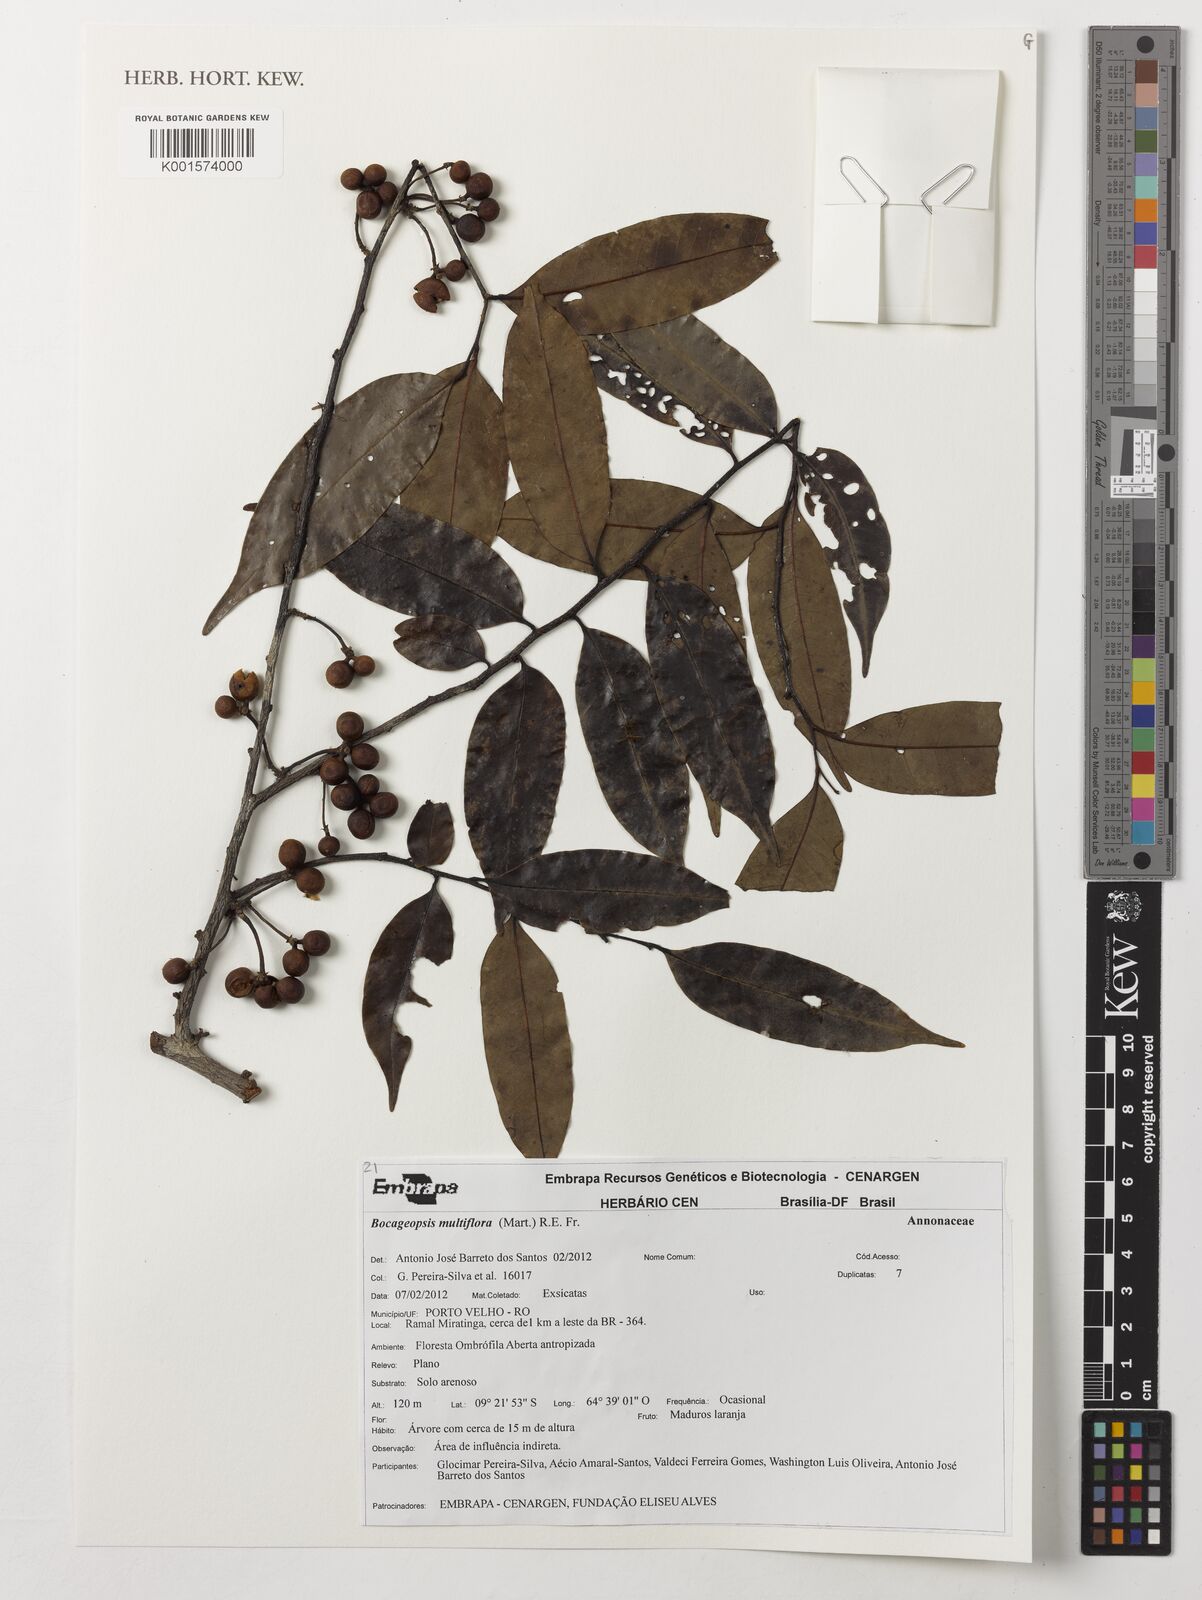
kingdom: Plantae
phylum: Tracheophyta
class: Magnoliopsida
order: Magnoliales
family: Annonaceae
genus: Bocageopsis
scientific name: Bocageopsis multiflora
